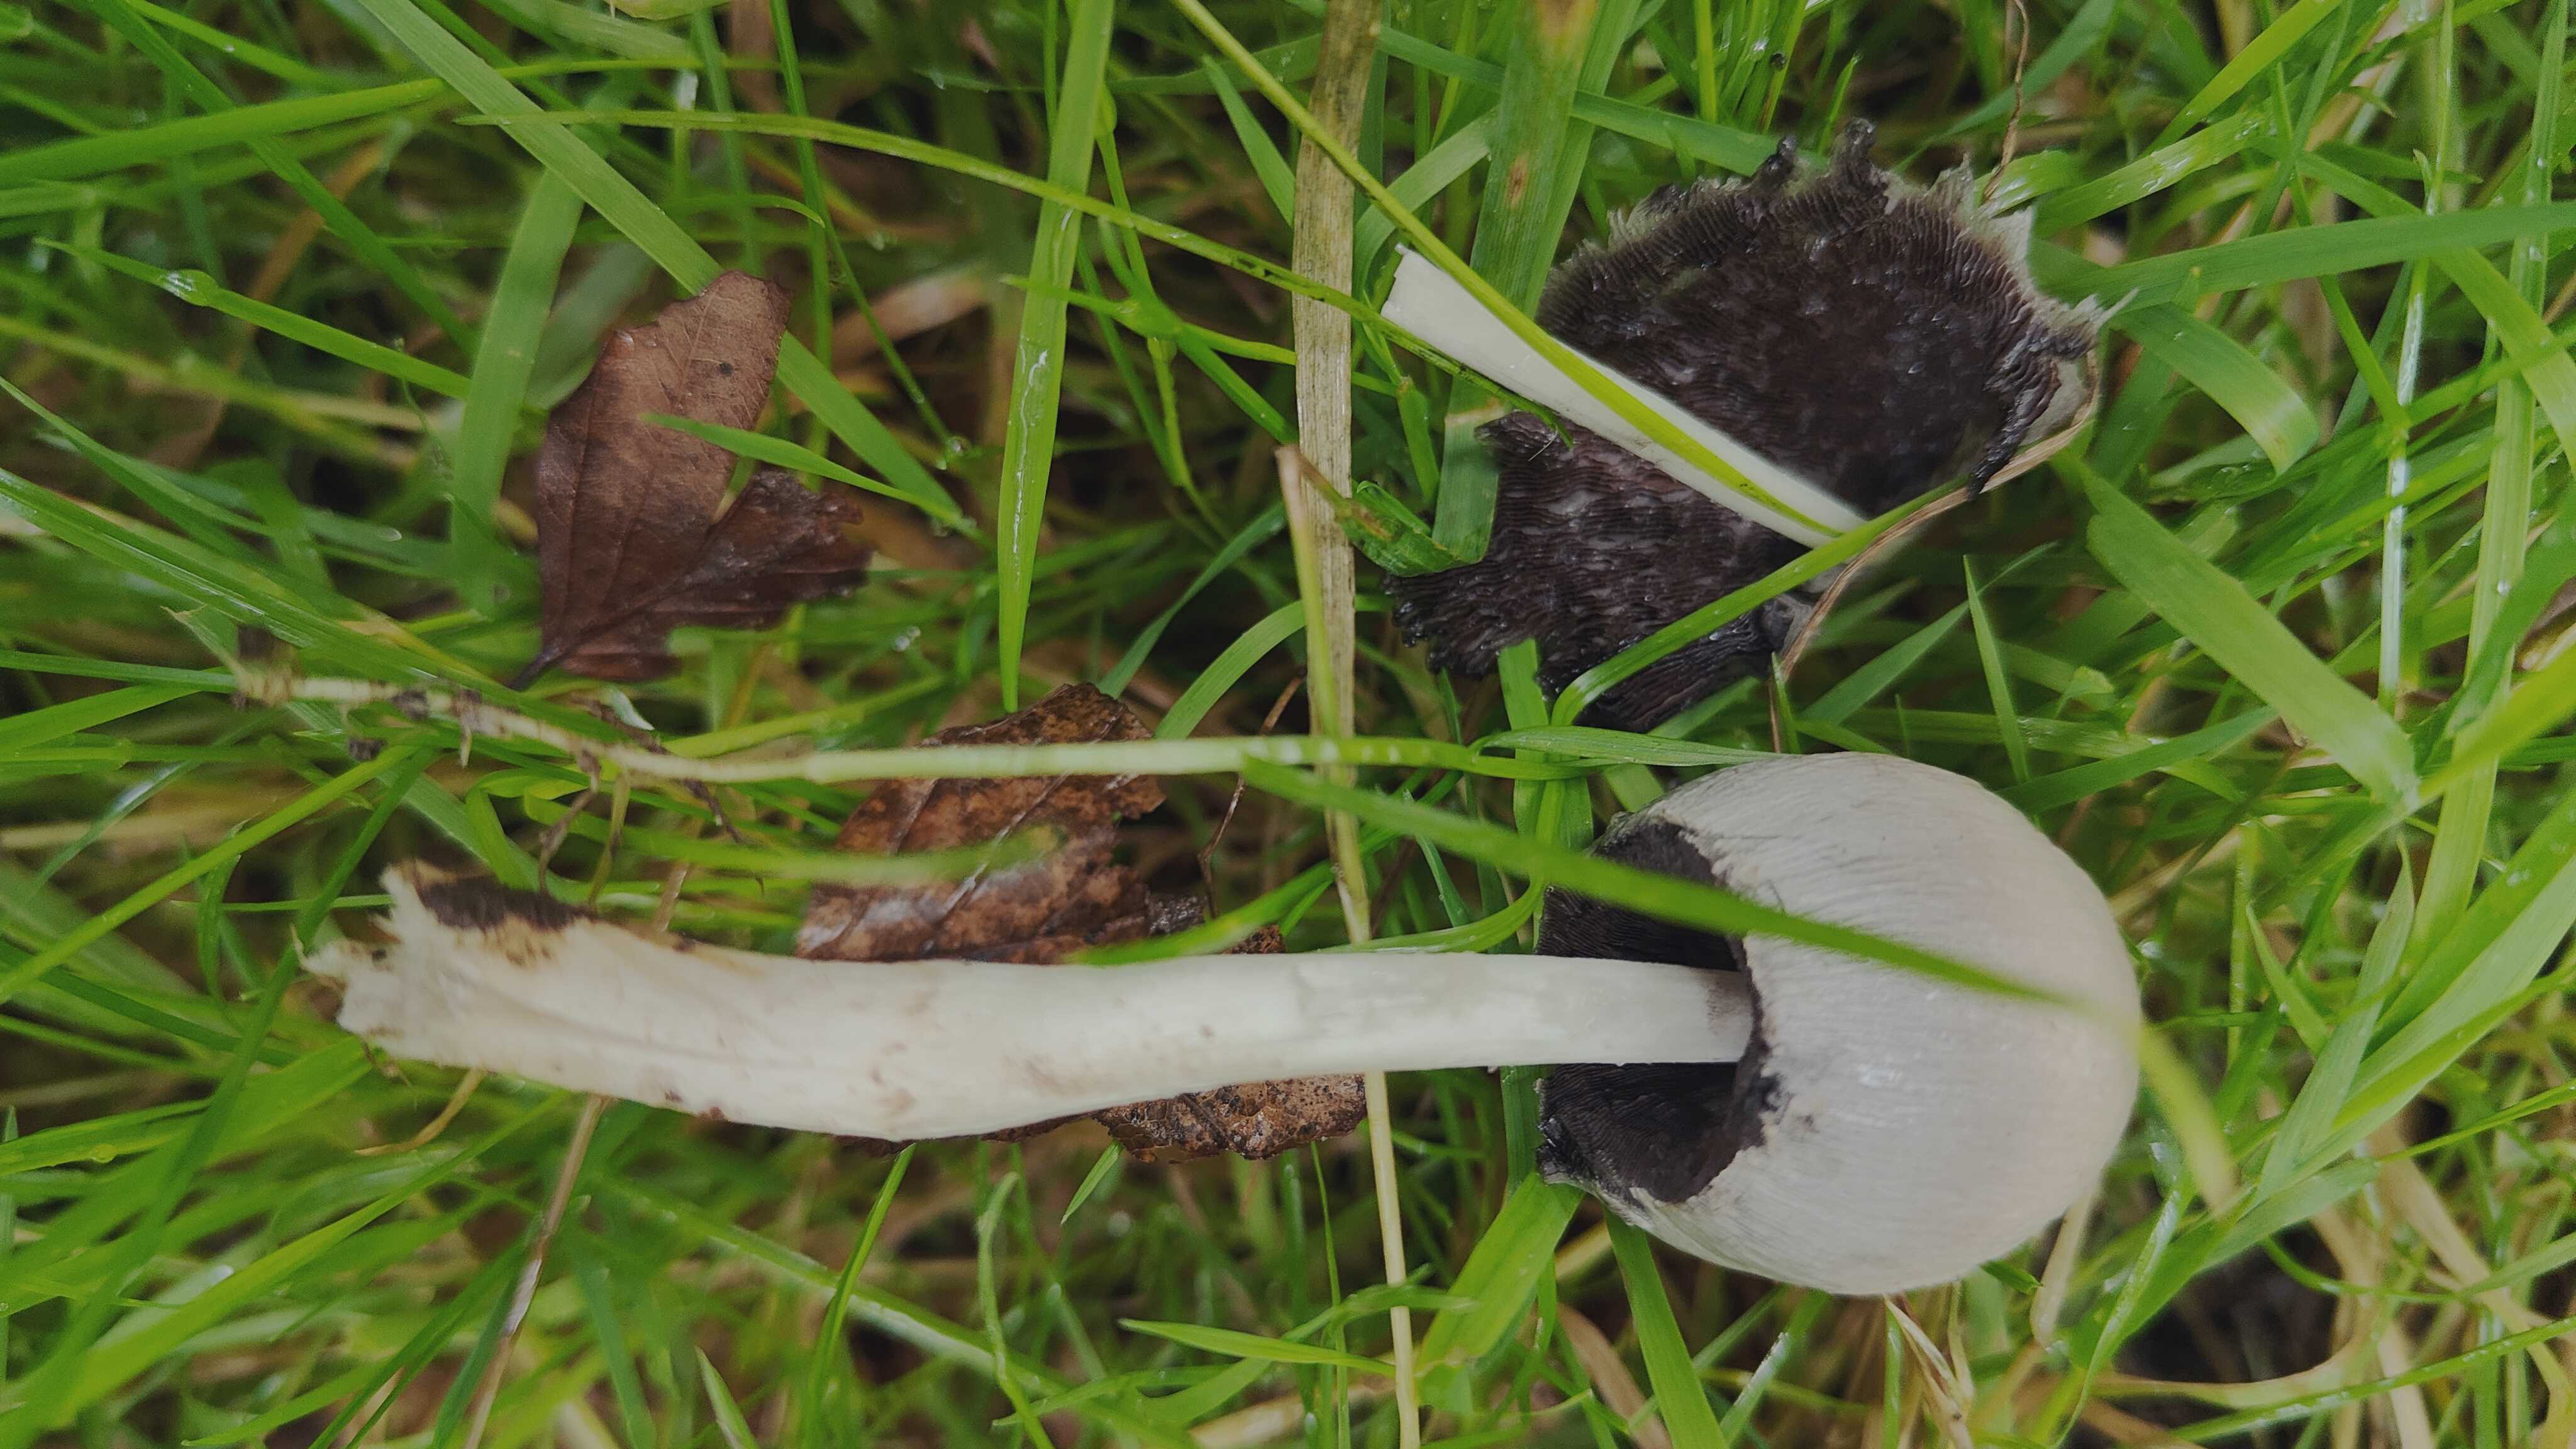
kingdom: Fungi
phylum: Basidiomycota
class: Agaricomycetes
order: Agaricales
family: Psathyrellaceae
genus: Coprinopsis
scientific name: Coprinopsis
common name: blækhat
